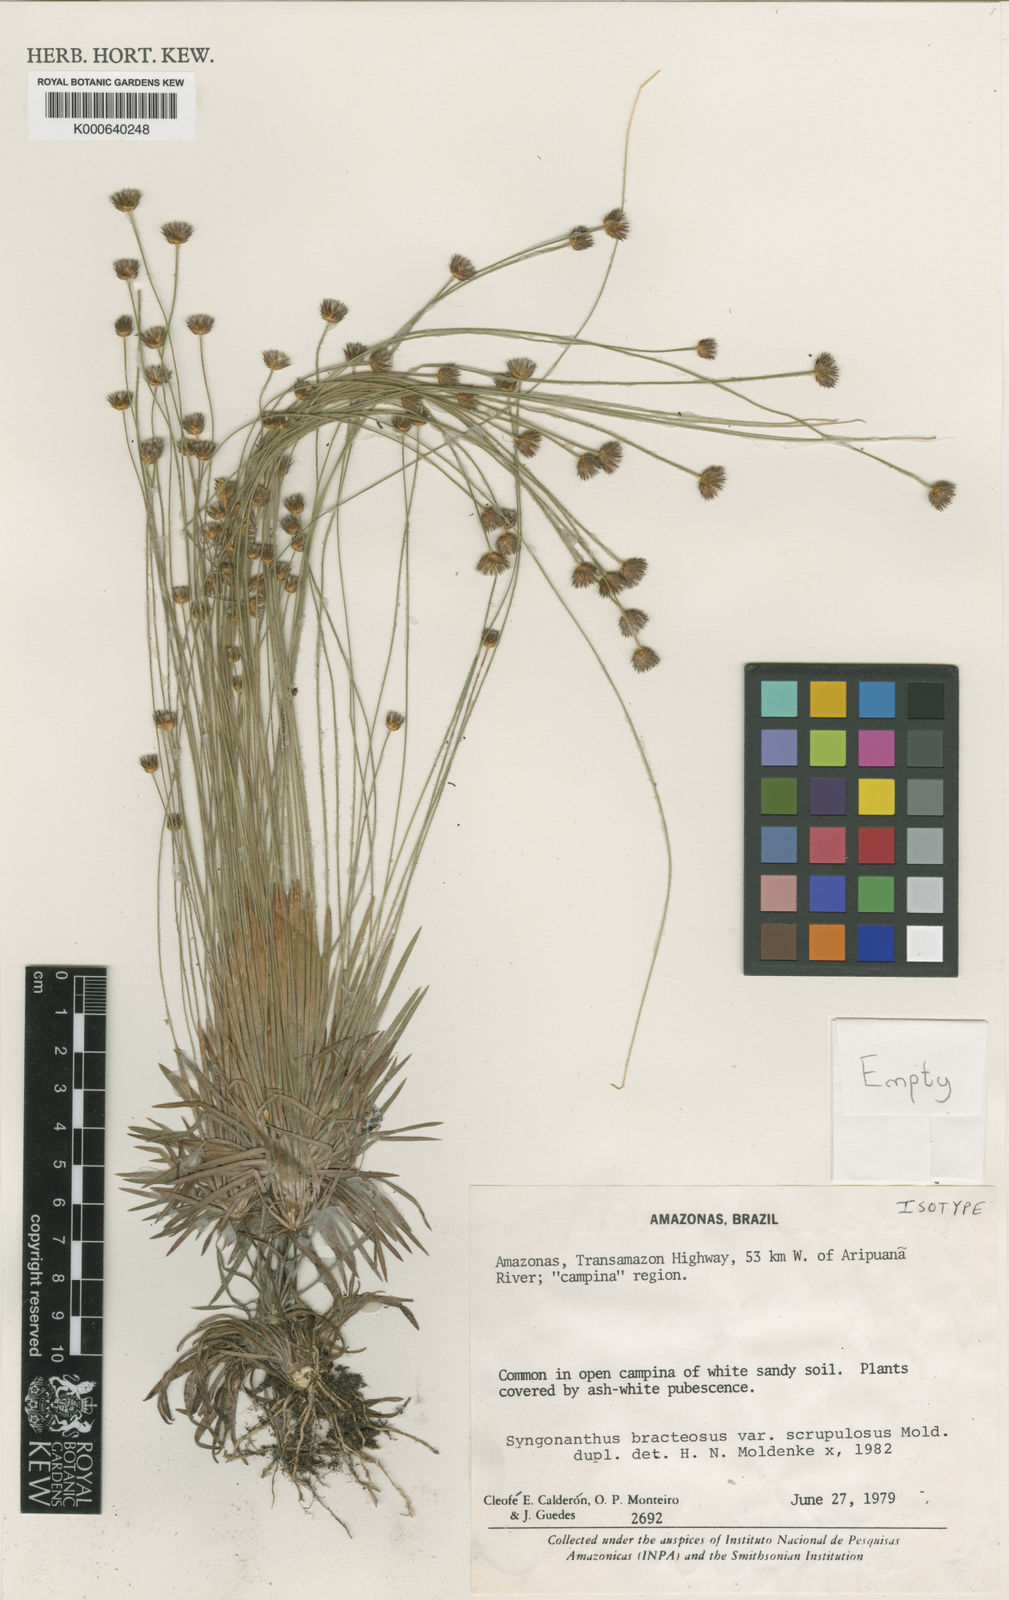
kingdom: Plantae
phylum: Tracheophyta
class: Liliopsida
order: Poales
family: Eriocaulaceae
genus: Syngonanthus
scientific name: Syngonanthus bracteosus
